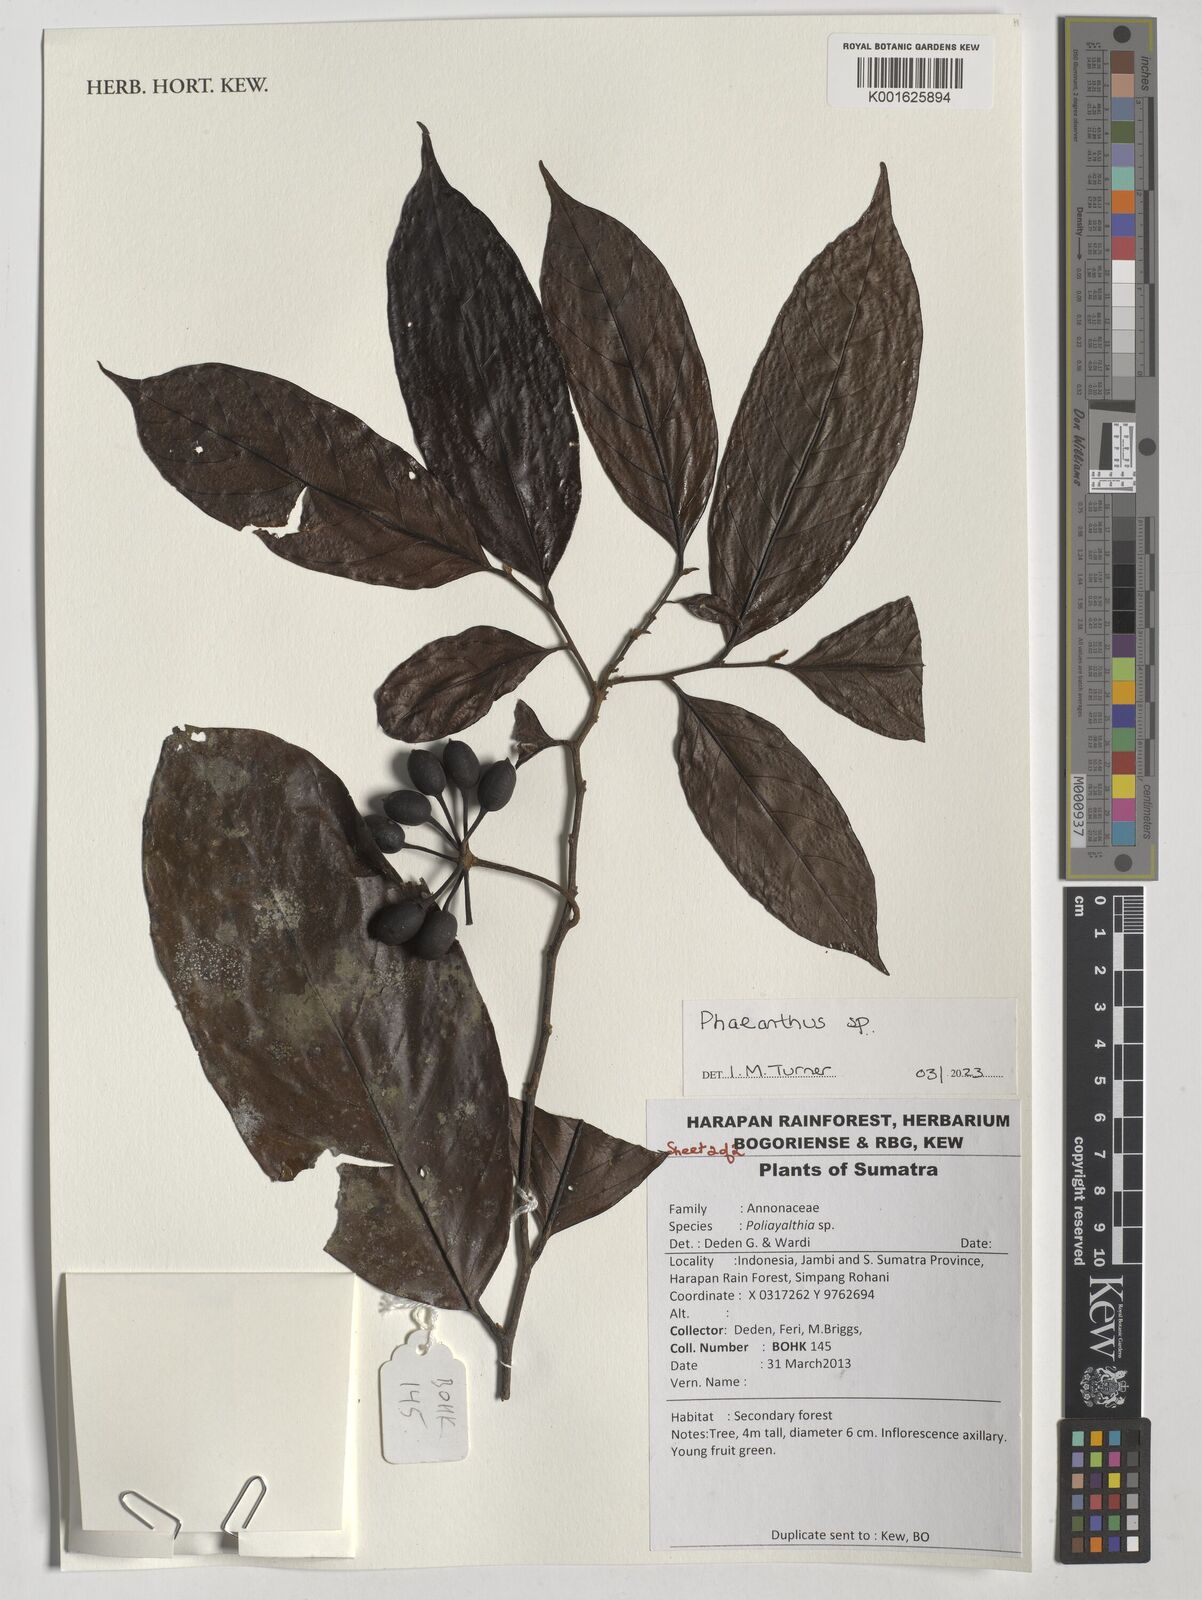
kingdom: Plantae
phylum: Tracheophyta
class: Magnoliopsida
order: Magnoliales
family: Annonaceae
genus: Phaeanthus
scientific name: Phaeanthus
